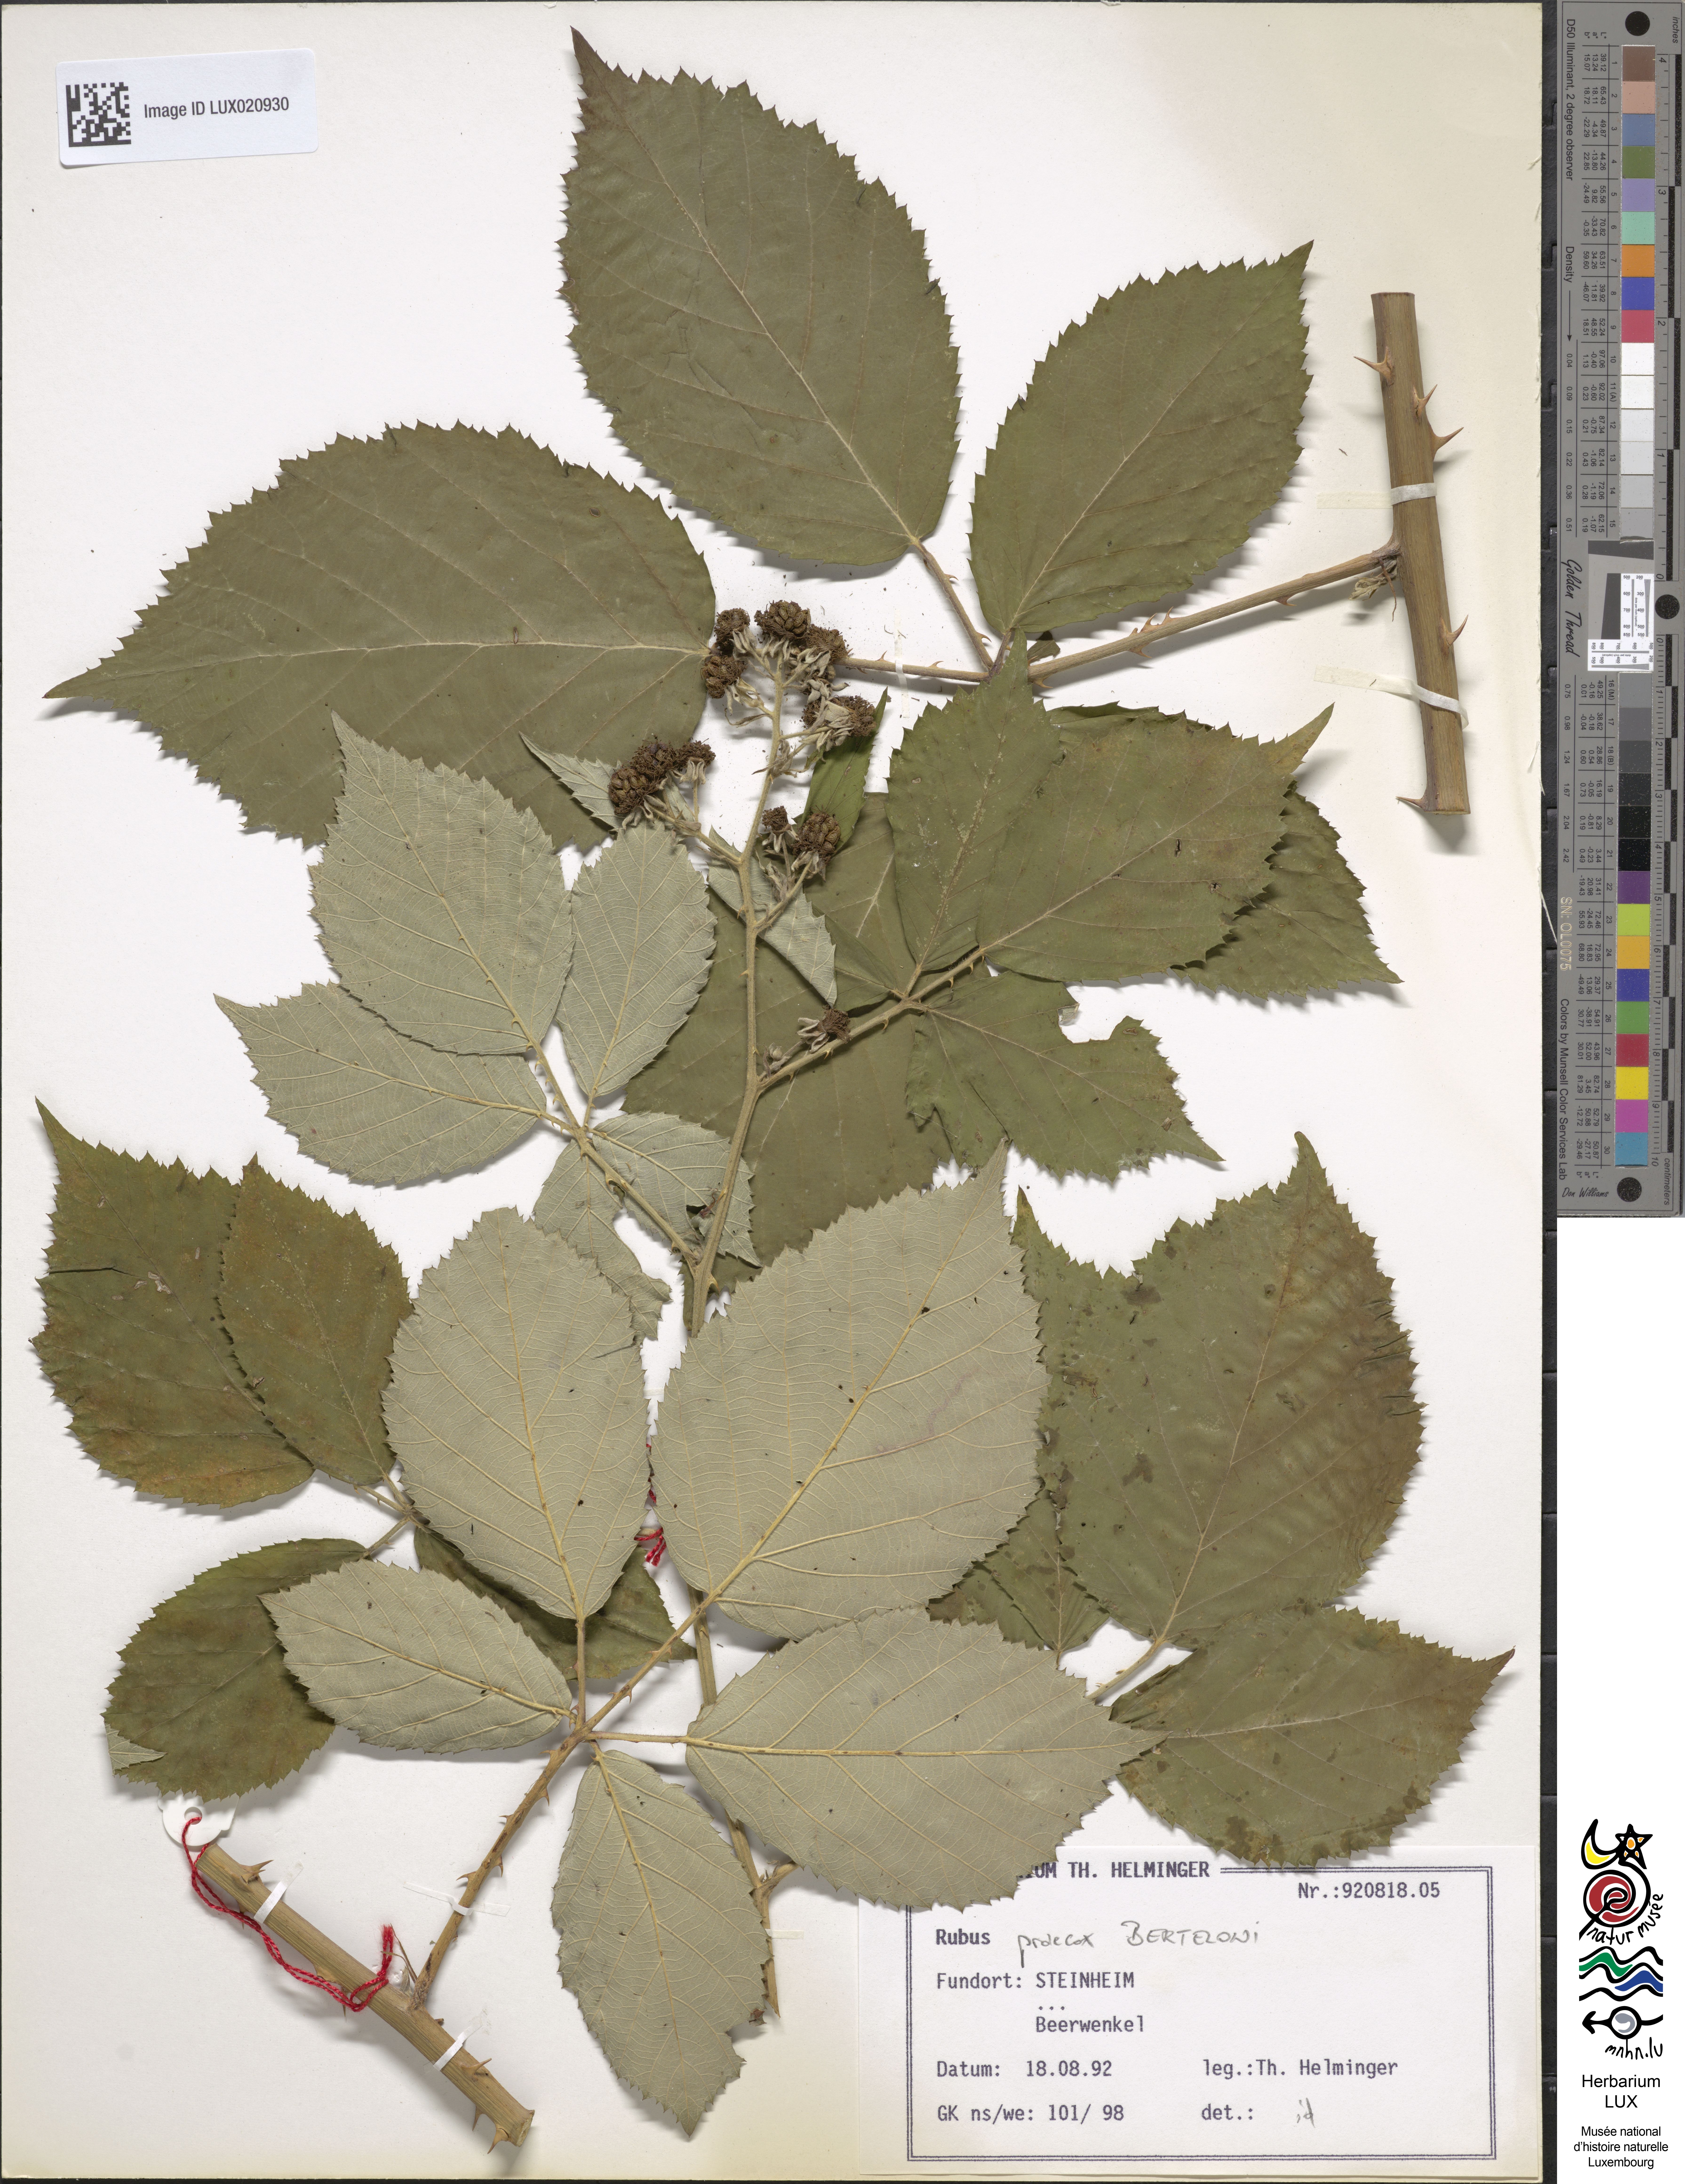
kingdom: Plantae
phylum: Tracheophyta
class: Magnoliopsida
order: Rosales
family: Rosaceae
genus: Rubus
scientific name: Rubus praecox
